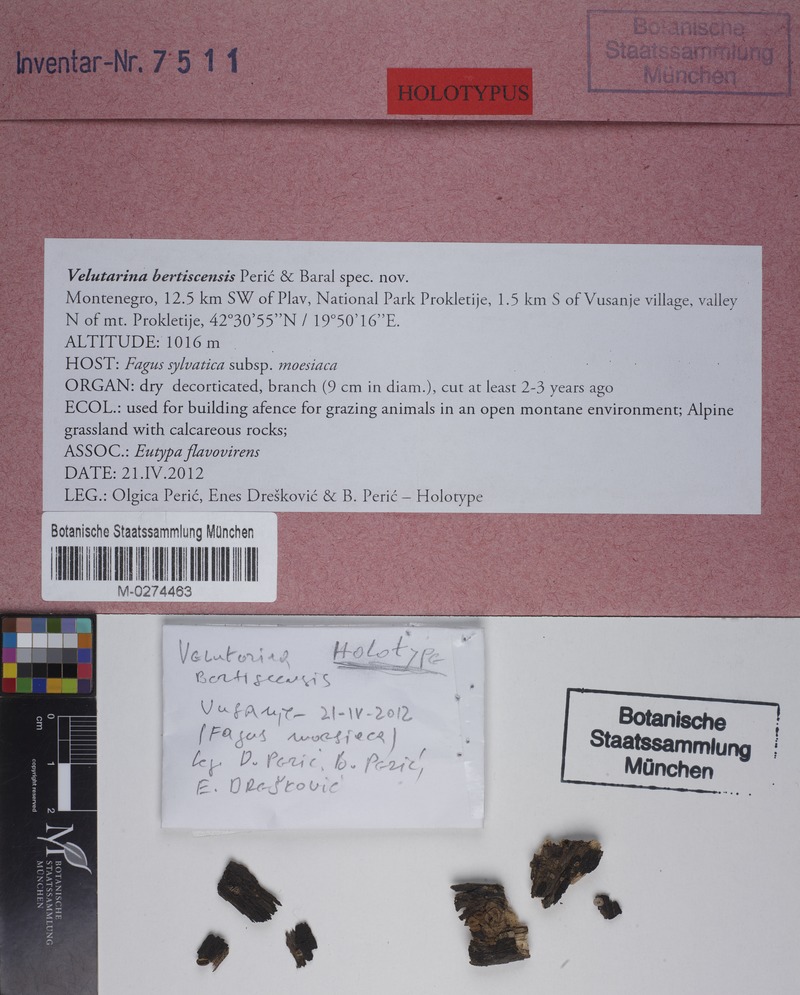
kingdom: Fungi
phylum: Ascomycota
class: Leotiomycetes
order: Helotiales
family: Cenangiaceae
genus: Velutarina
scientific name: Velutarina bertiscensis
